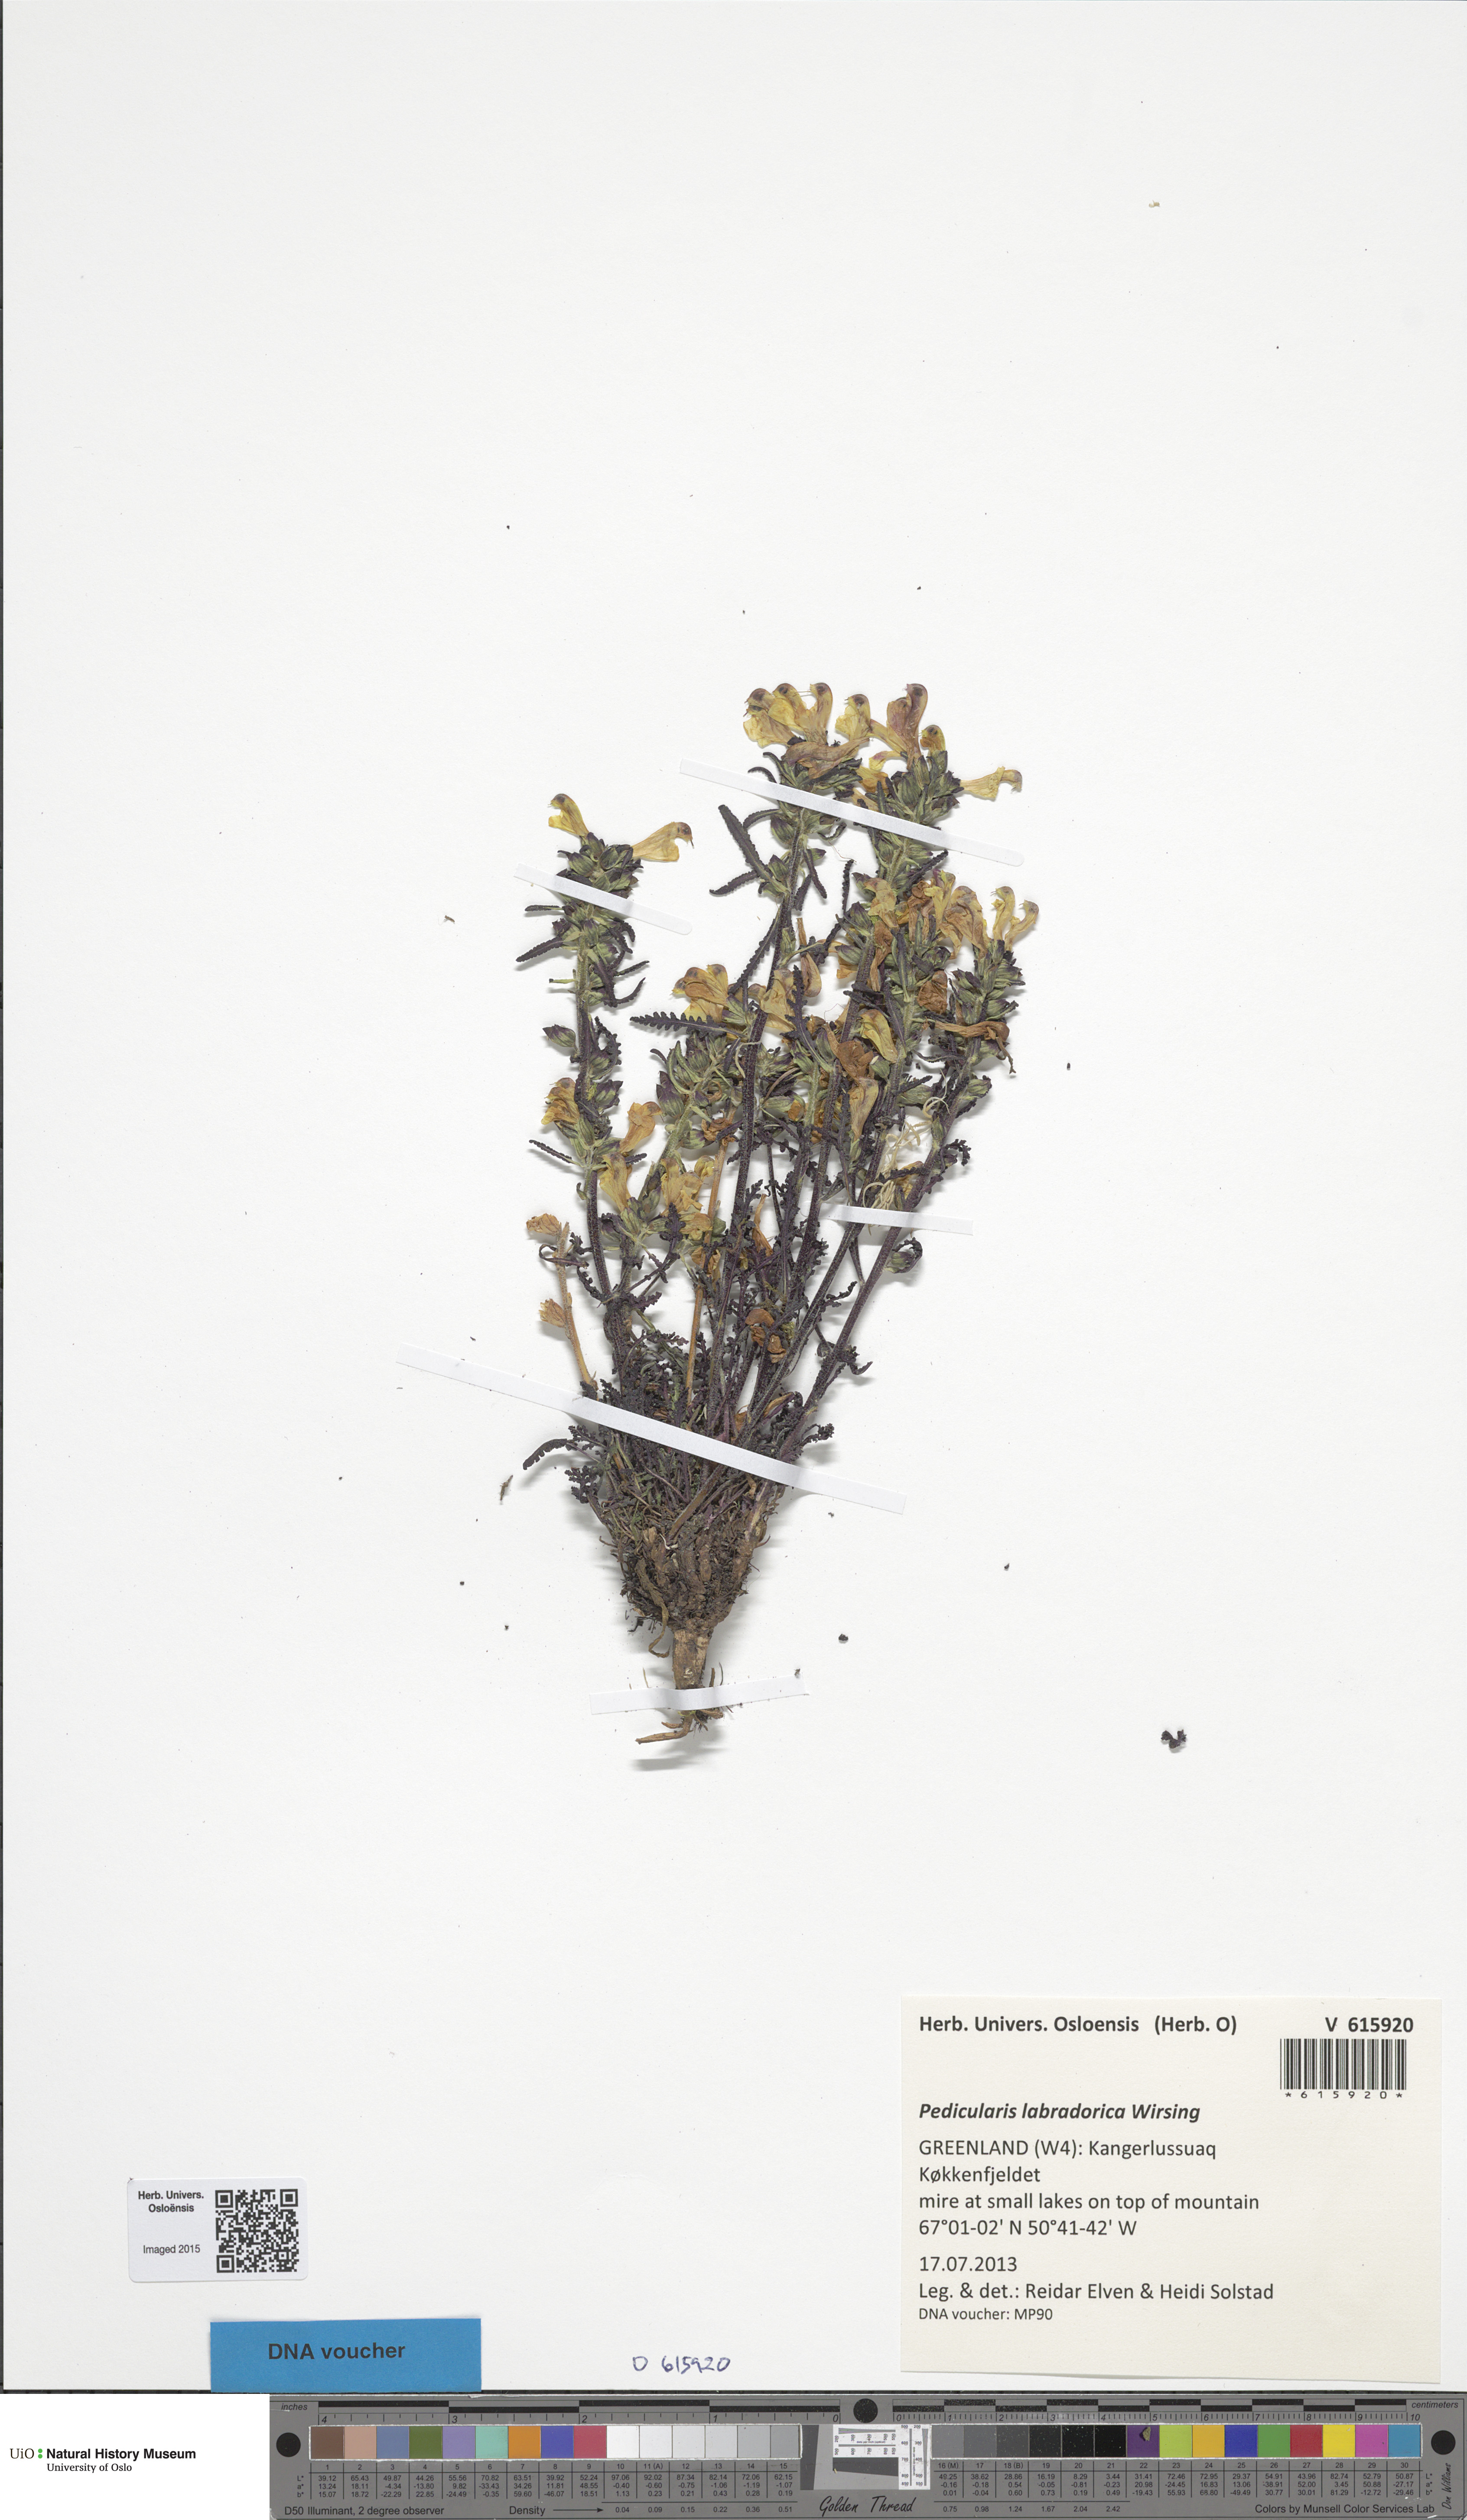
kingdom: Plantae
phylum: Tracheophyta
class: Magnoliopsida
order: Lamiales
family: Orobanchaceae
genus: Pedicularis
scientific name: Pedicularis labradorica
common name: Labrador lousewort
